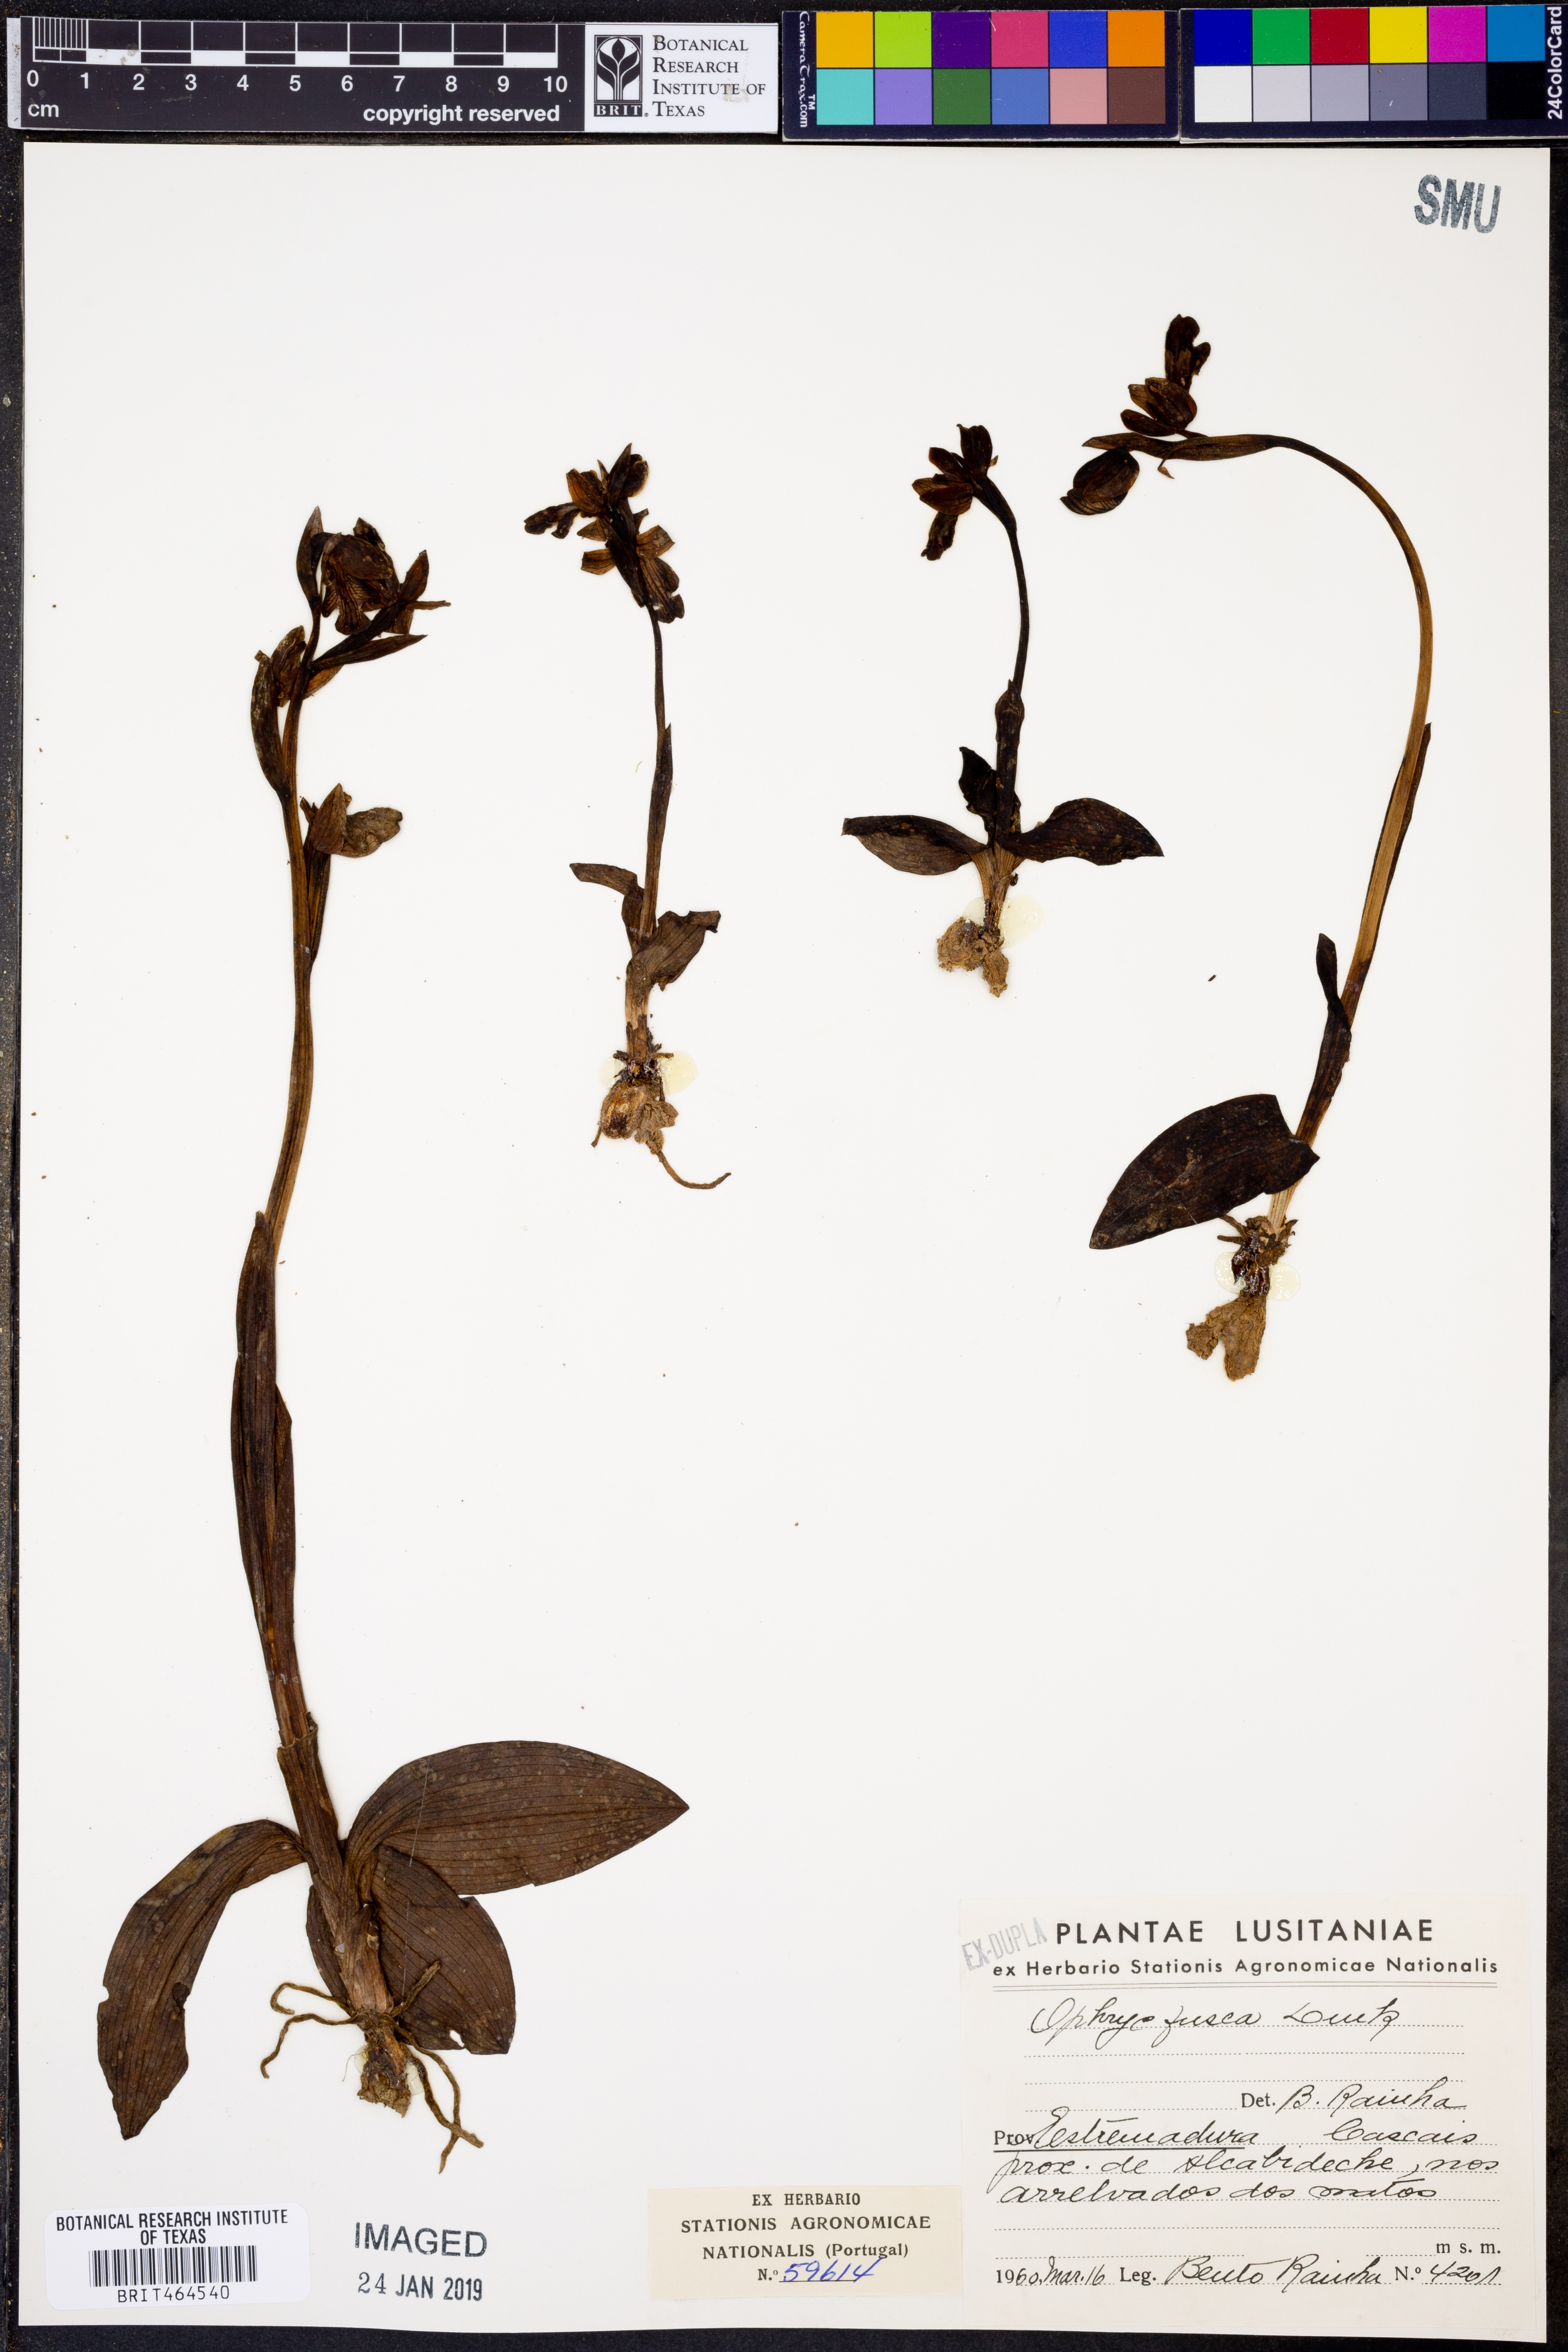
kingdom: Plantae
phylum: Tracheophyta
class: Liliopsida
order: Asparagales
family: Orchidaceae
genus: Ophrys
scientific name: Ophrys fusca
